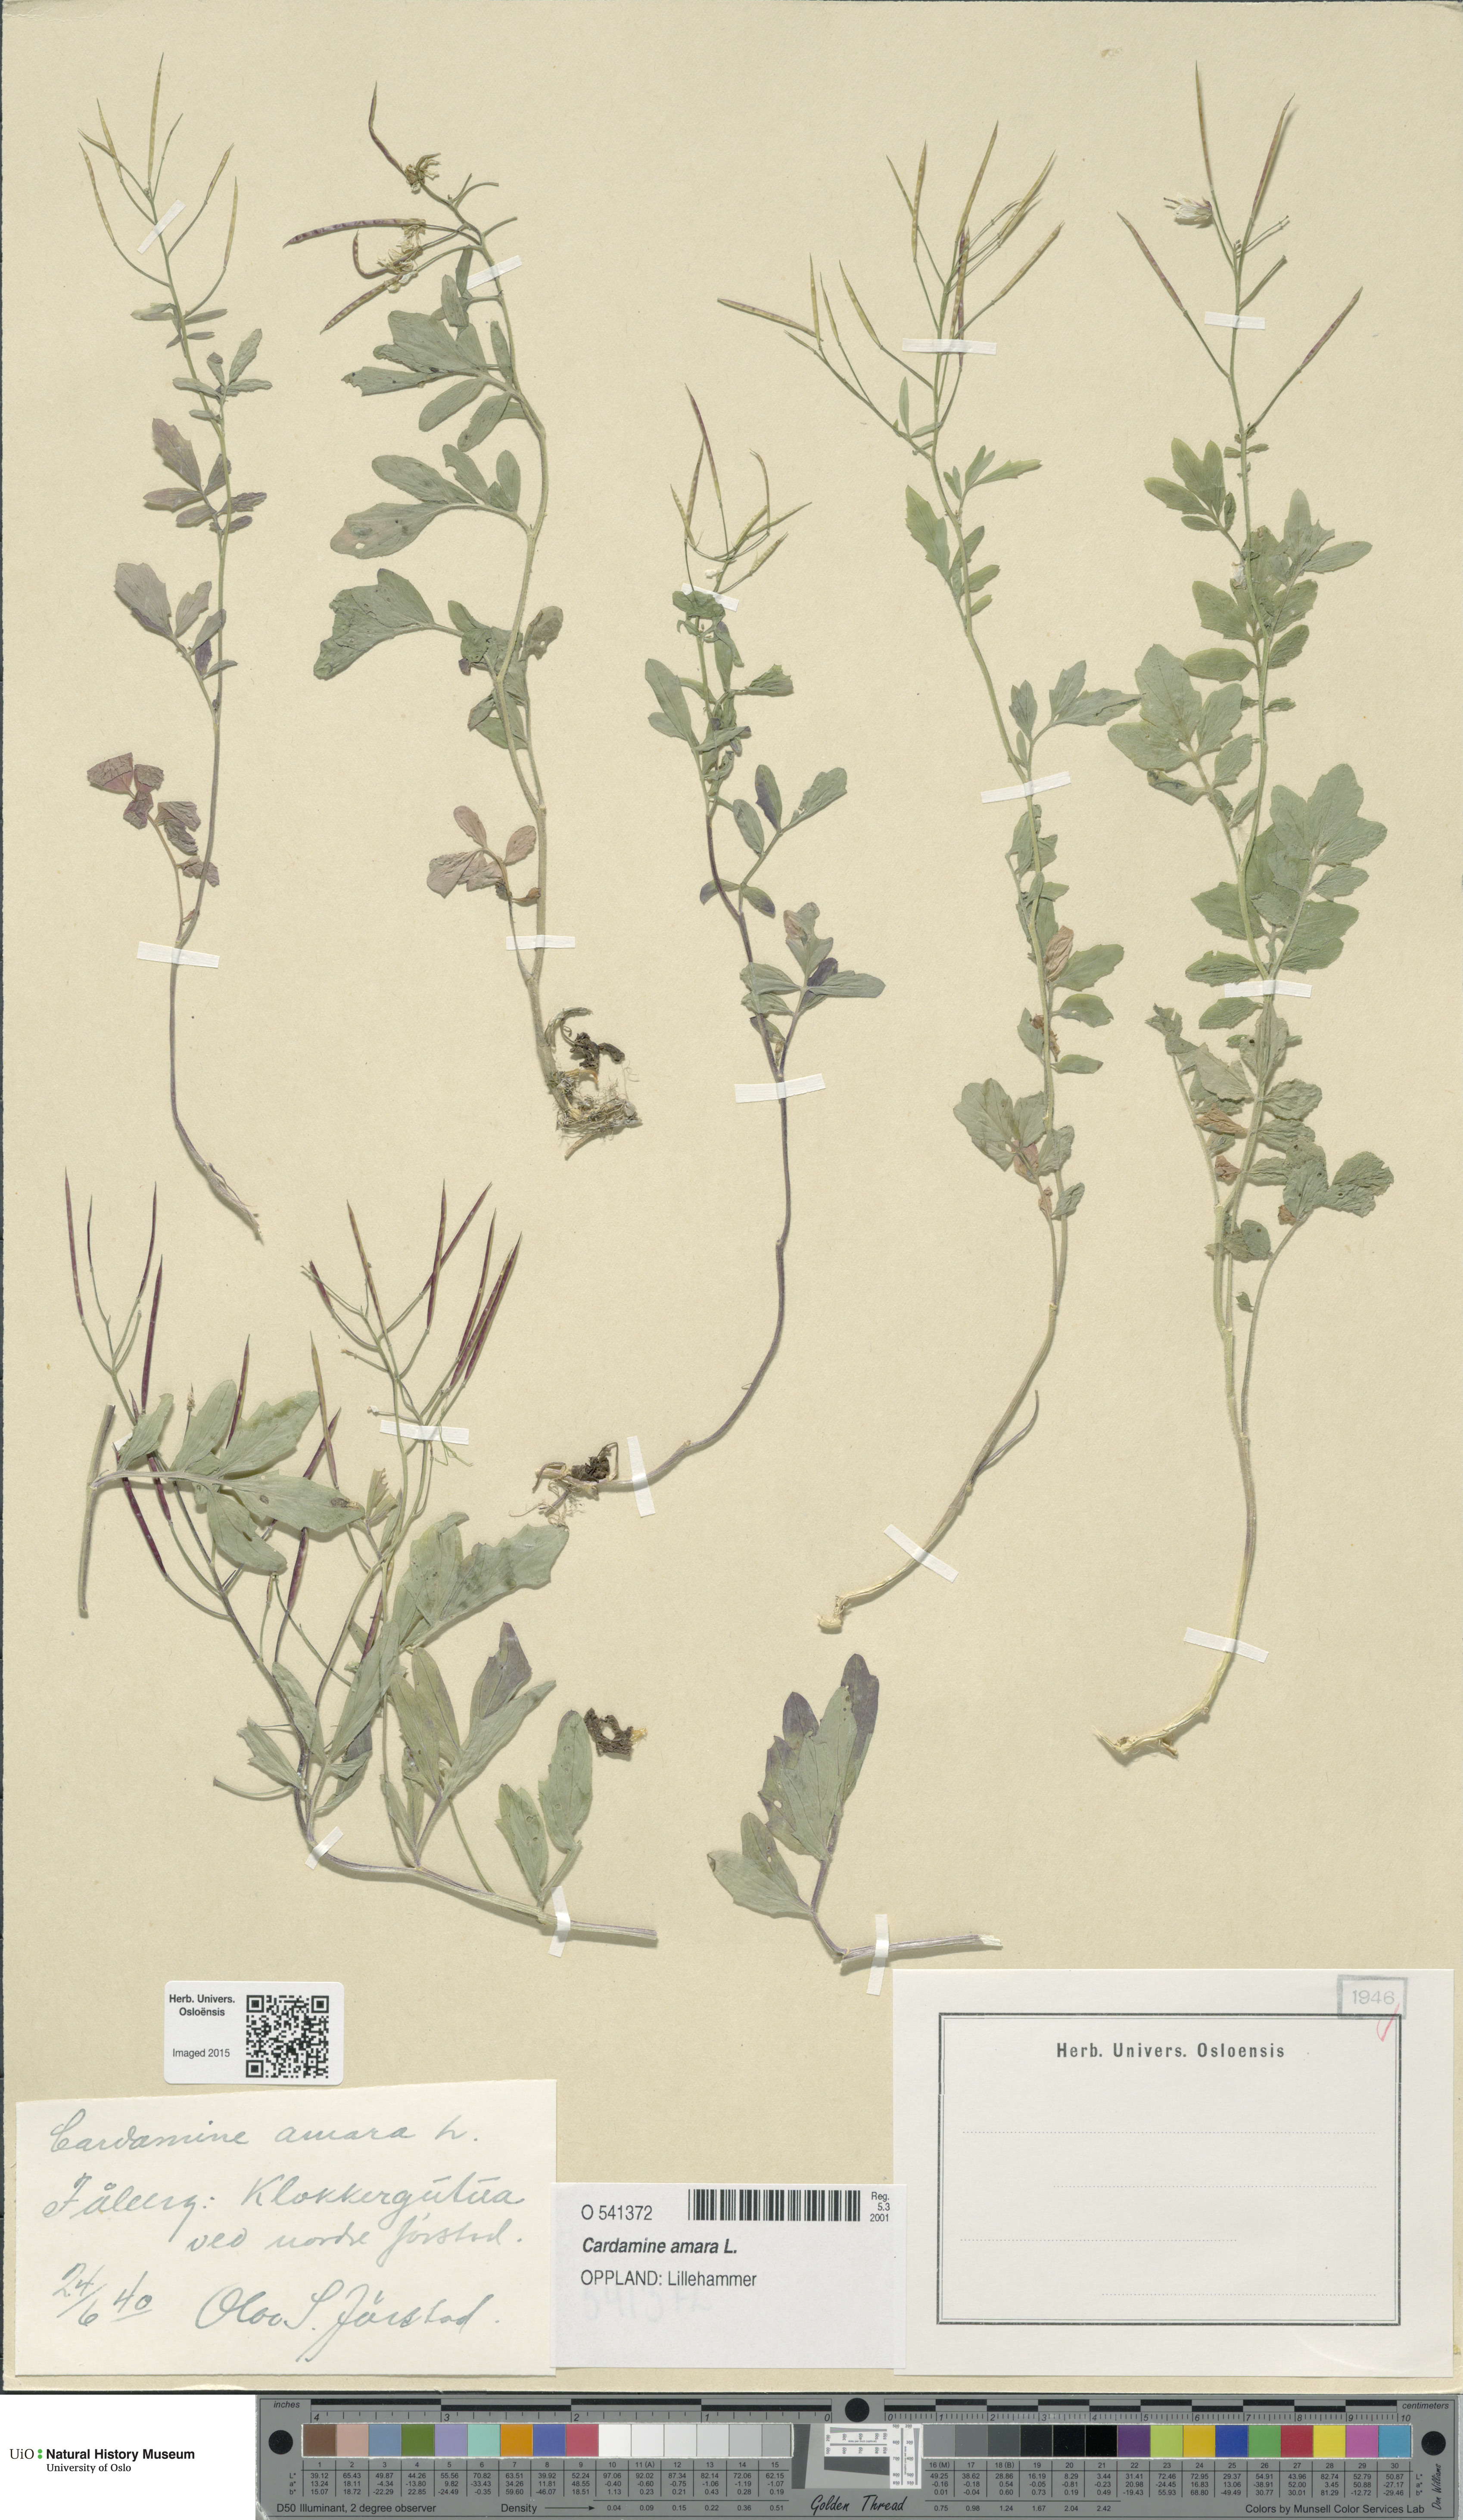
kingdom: Plantae
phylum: Tracheophyta
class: Magnoliopsida
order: Brassicales
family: Brassicaceae
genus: Cardamine
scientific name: Cardamine amara
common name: Large bitter-cress
